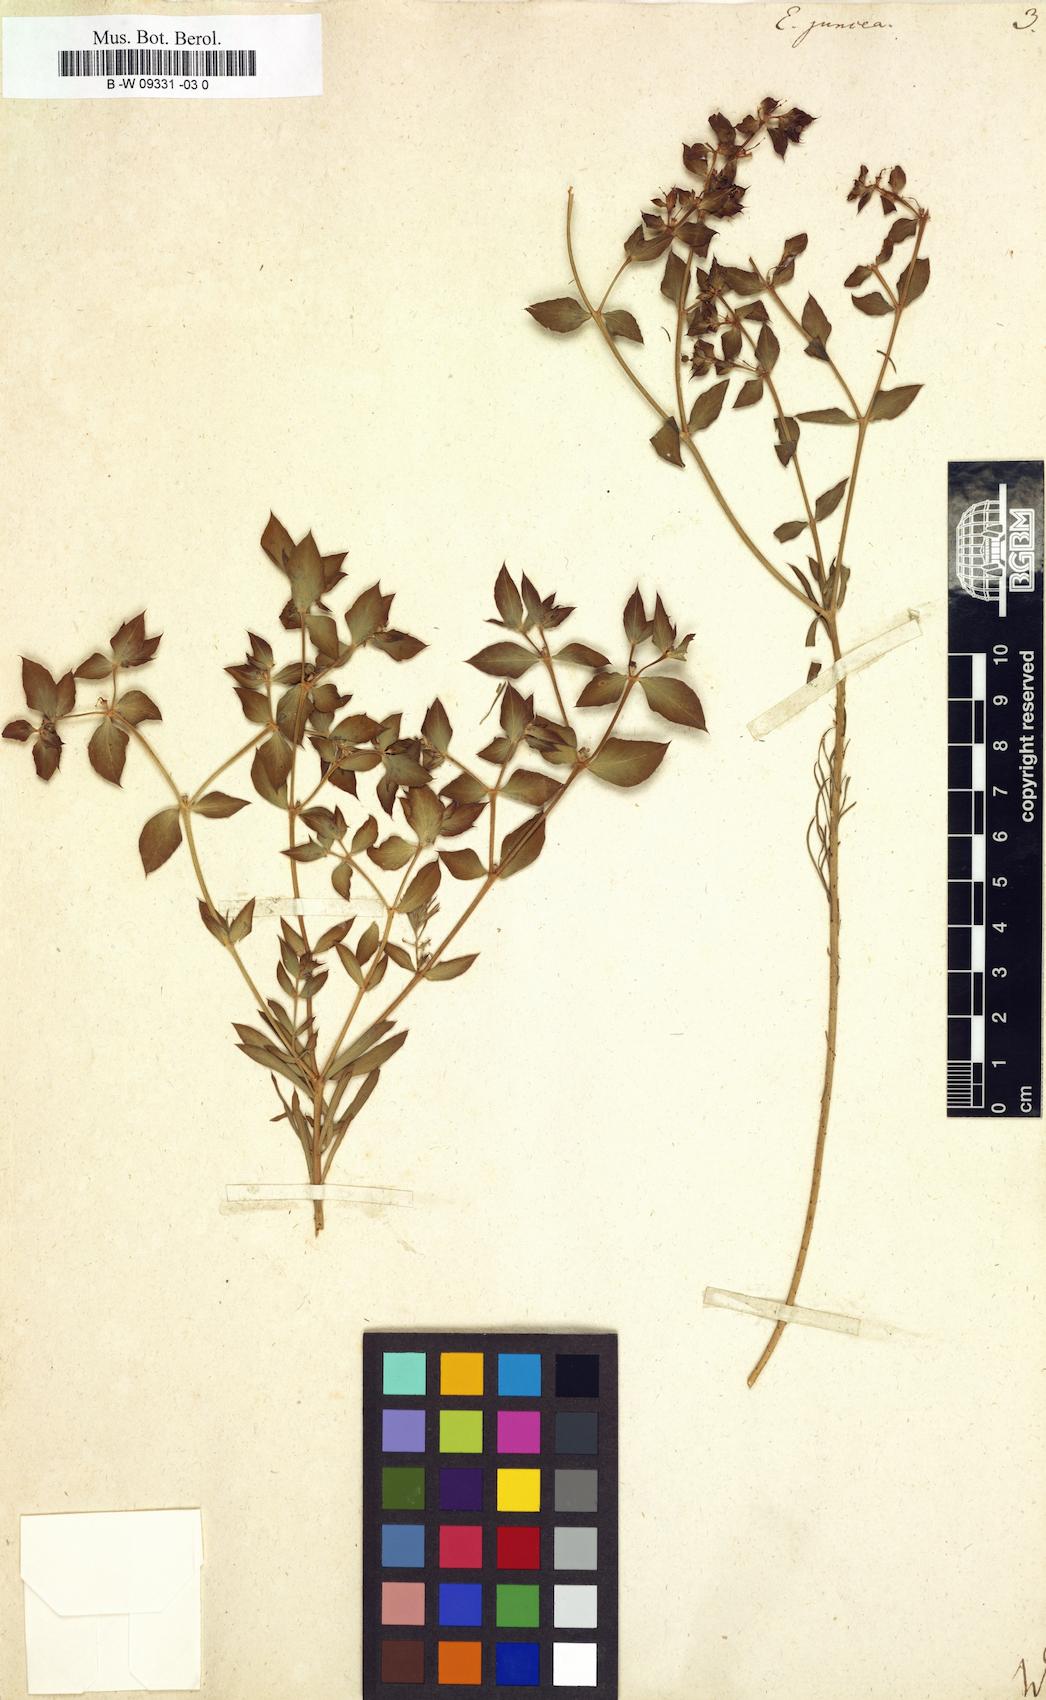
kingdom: Plantae
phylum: Tracheophyta
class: Magnoliopsida
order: Malpighiales
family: Euphorbiaceae
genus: Euphorbia
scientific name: Euphorbia aleppica
